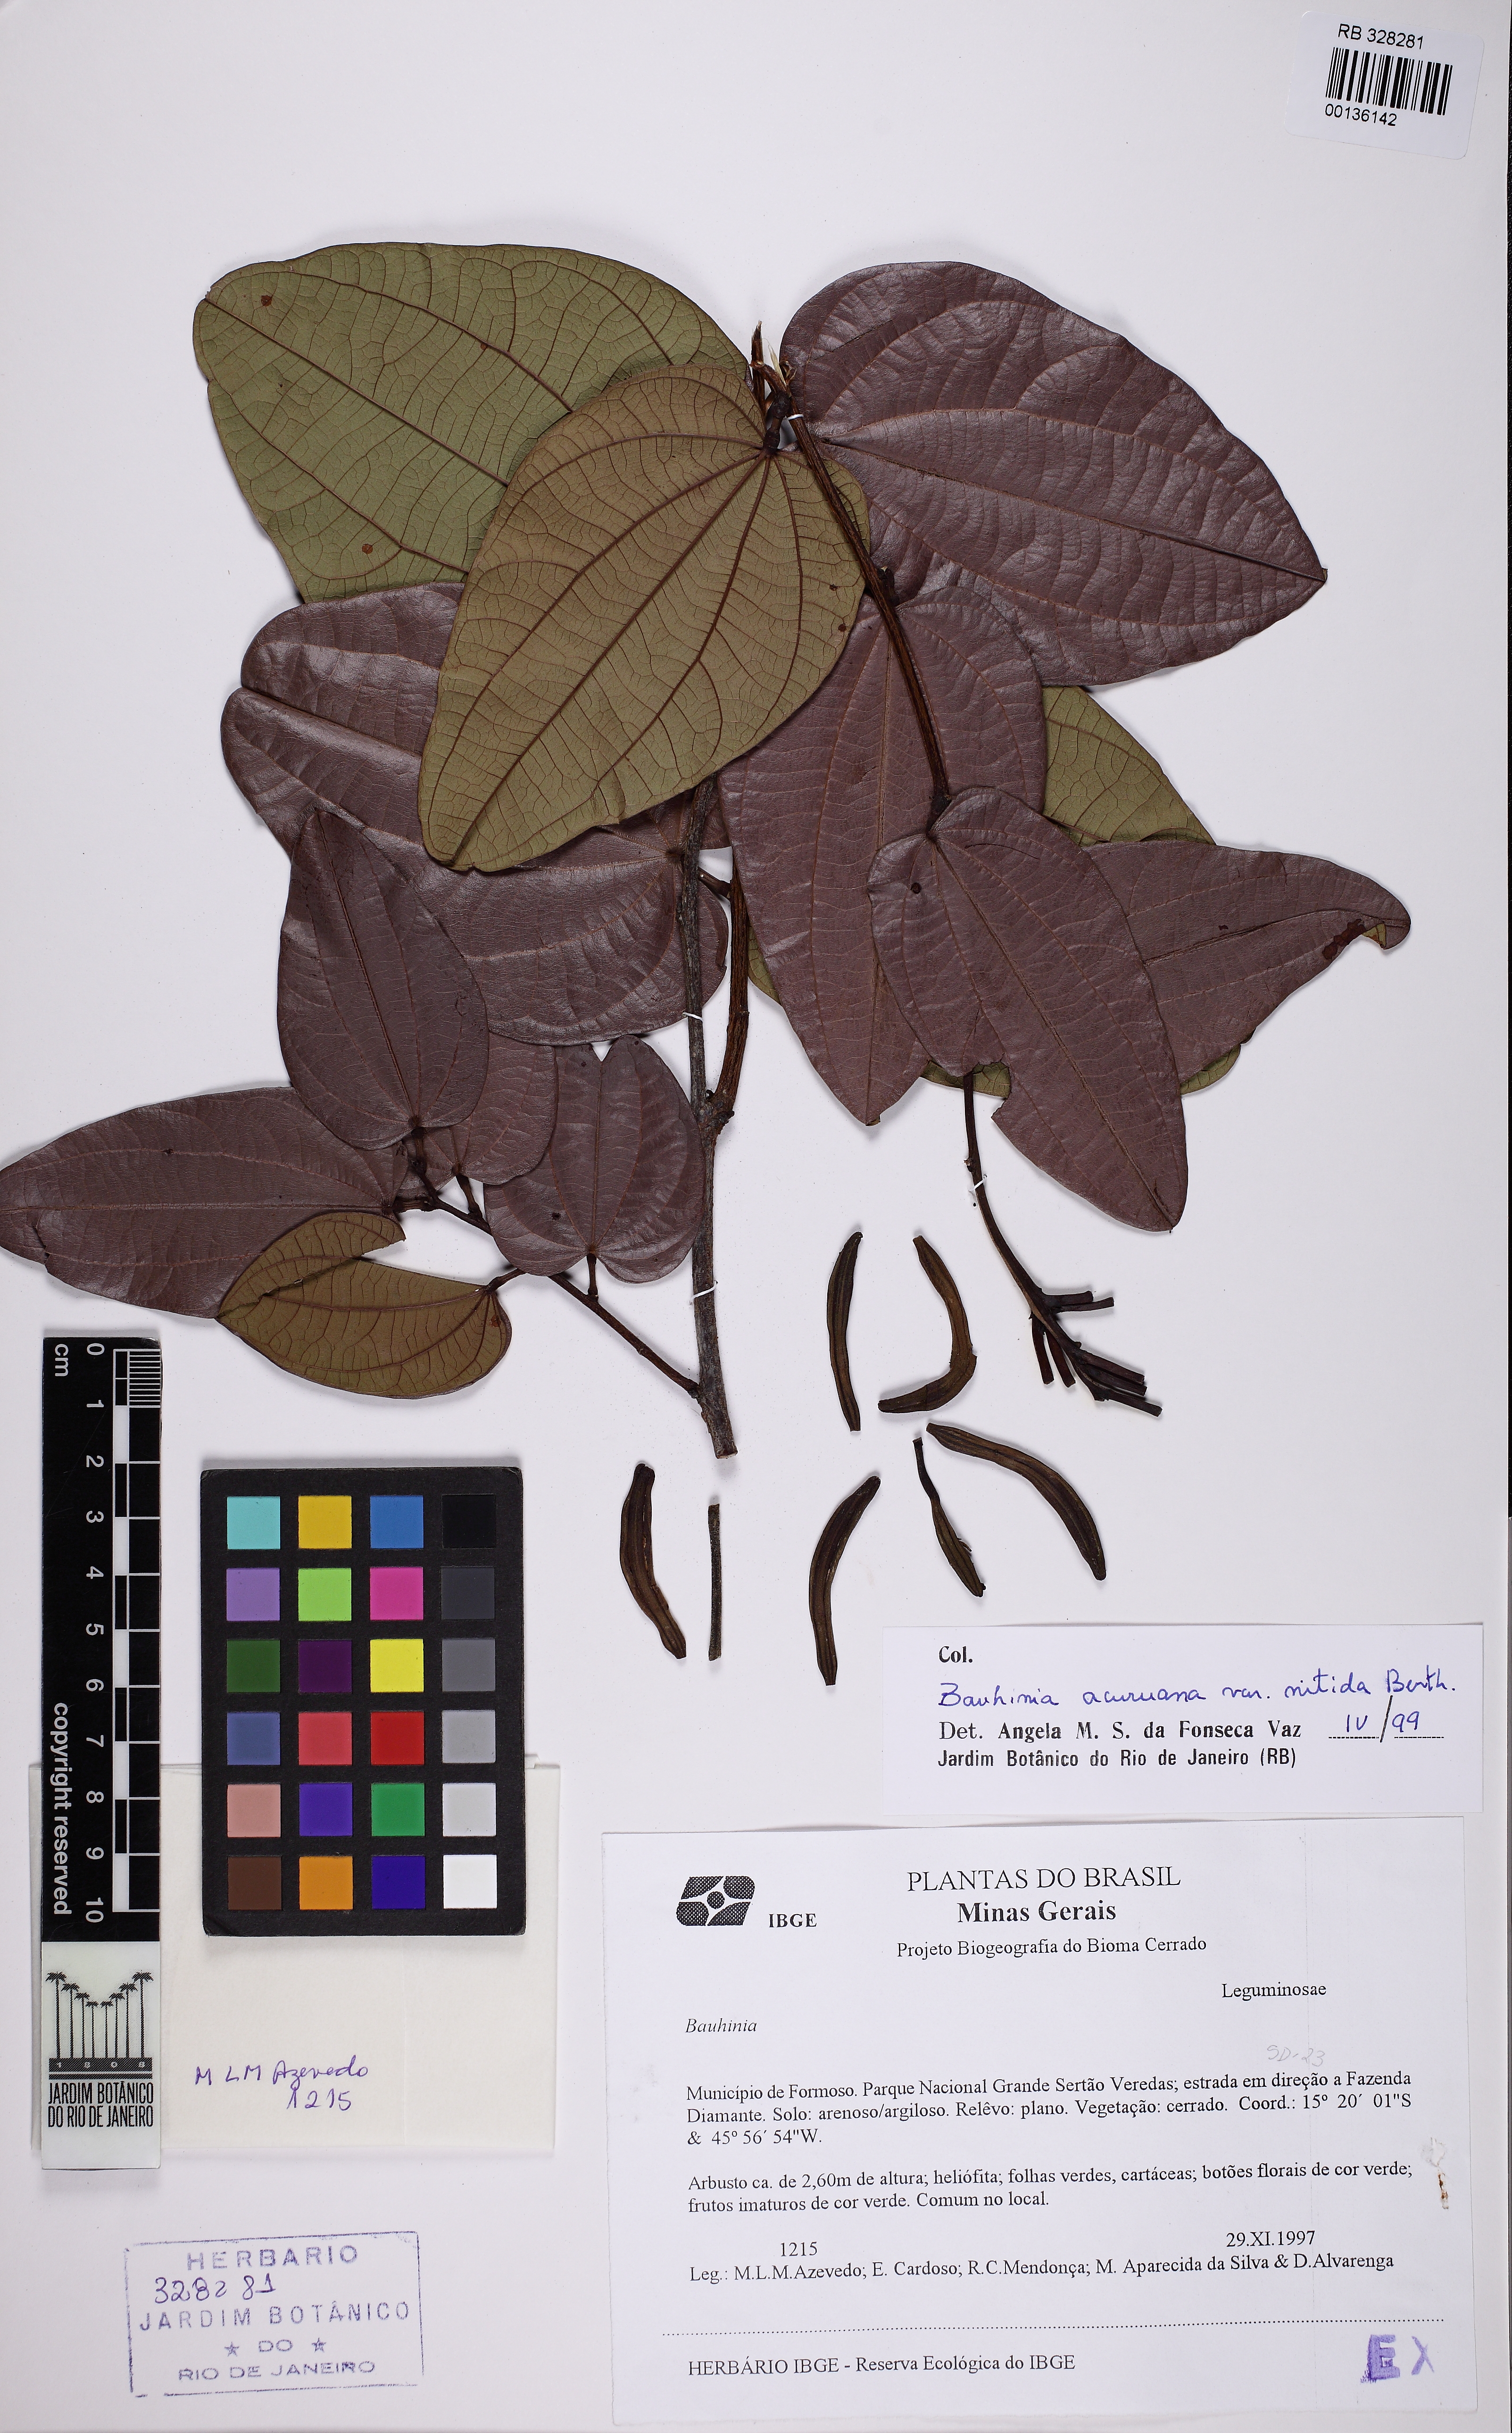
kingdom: Plantae
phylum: Tracheophyta
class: Magnoliopsida
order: Fabales
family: Fabaceae
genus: Bauhinia
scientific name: Bauhinia acuruana
